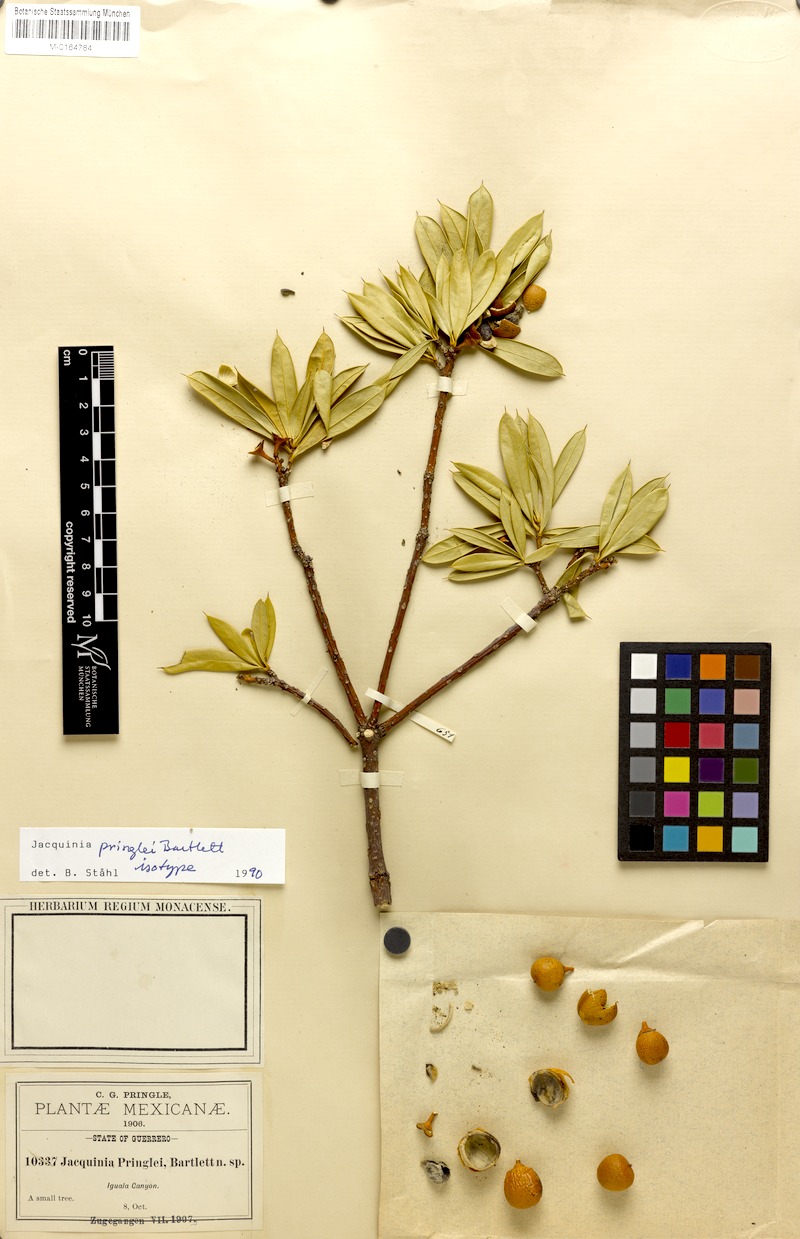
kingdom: Plantae
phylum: Tracheophyta
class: Magnoliopsida
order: Ericales
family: Primulaceae
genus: Bonellia
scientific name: Bonellia pringlei
